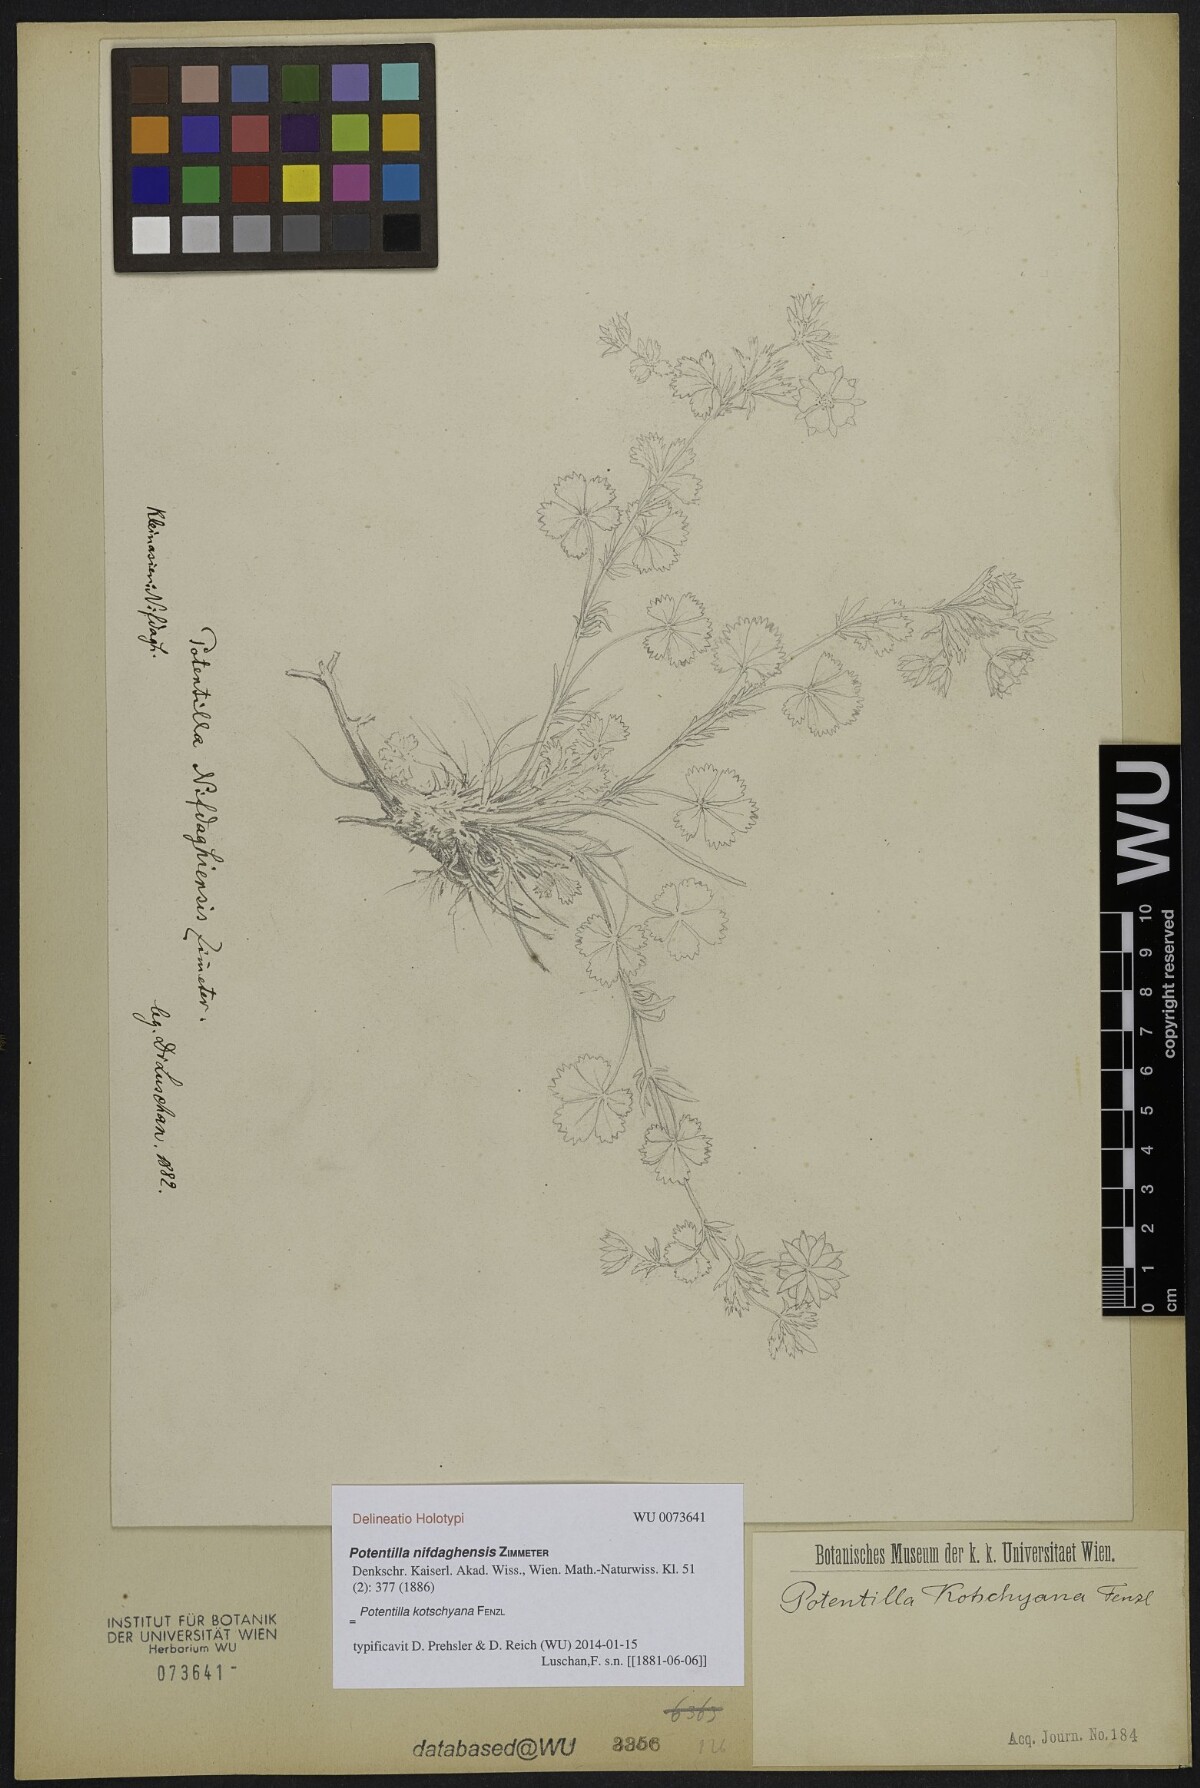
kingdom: Plantae
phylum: Tracheophyta
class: Magnoliopsida
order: Rosales
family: Rosaceae
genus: Potentilla
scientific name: Potentilla kotschyana
